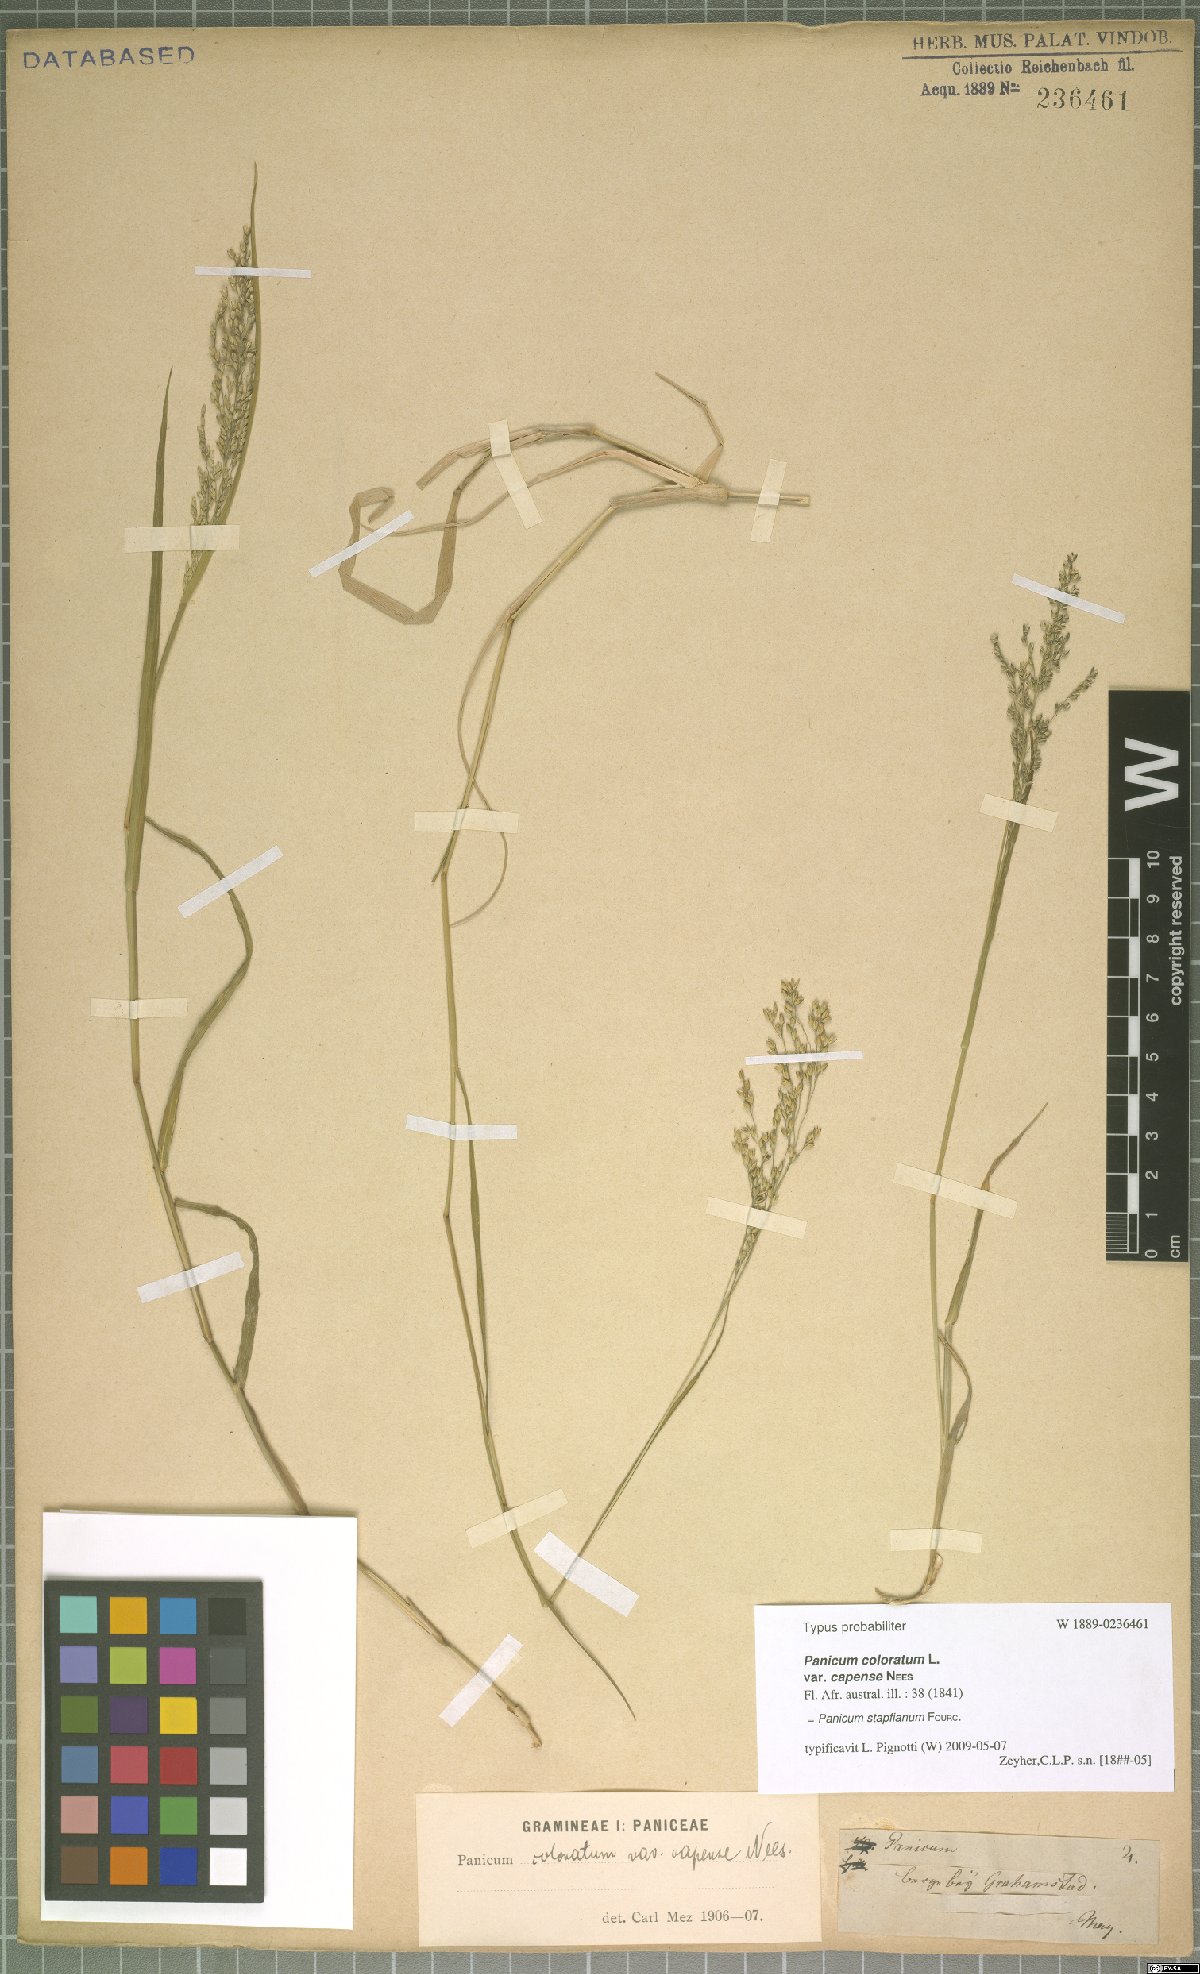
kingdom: Plantae
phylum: Tracheophyta
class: Liliopsida
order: Poales
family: Poaceae
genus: Panicum
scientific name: Panicum stapfianum
